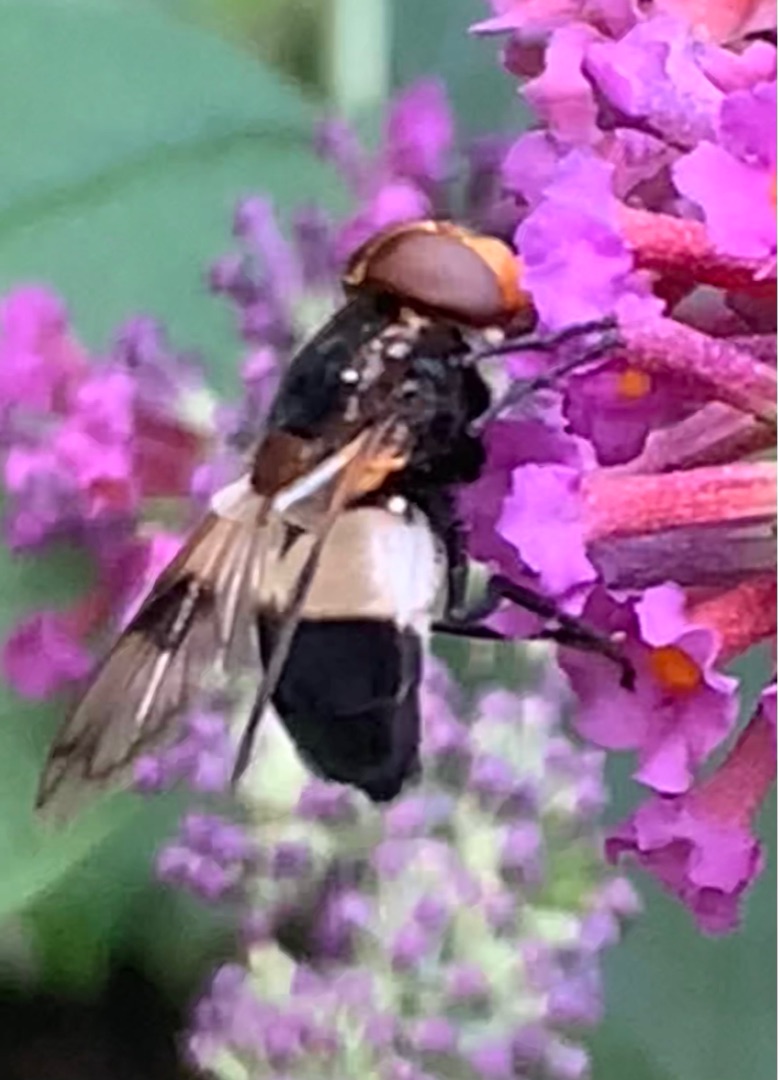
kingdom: Animalia
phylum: Arthropoda
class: Insecta
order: Diptera
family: Syrphidae
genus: Volucella
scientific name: Volucella pellucens
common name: Hvidbåndet humlesvirreflue
